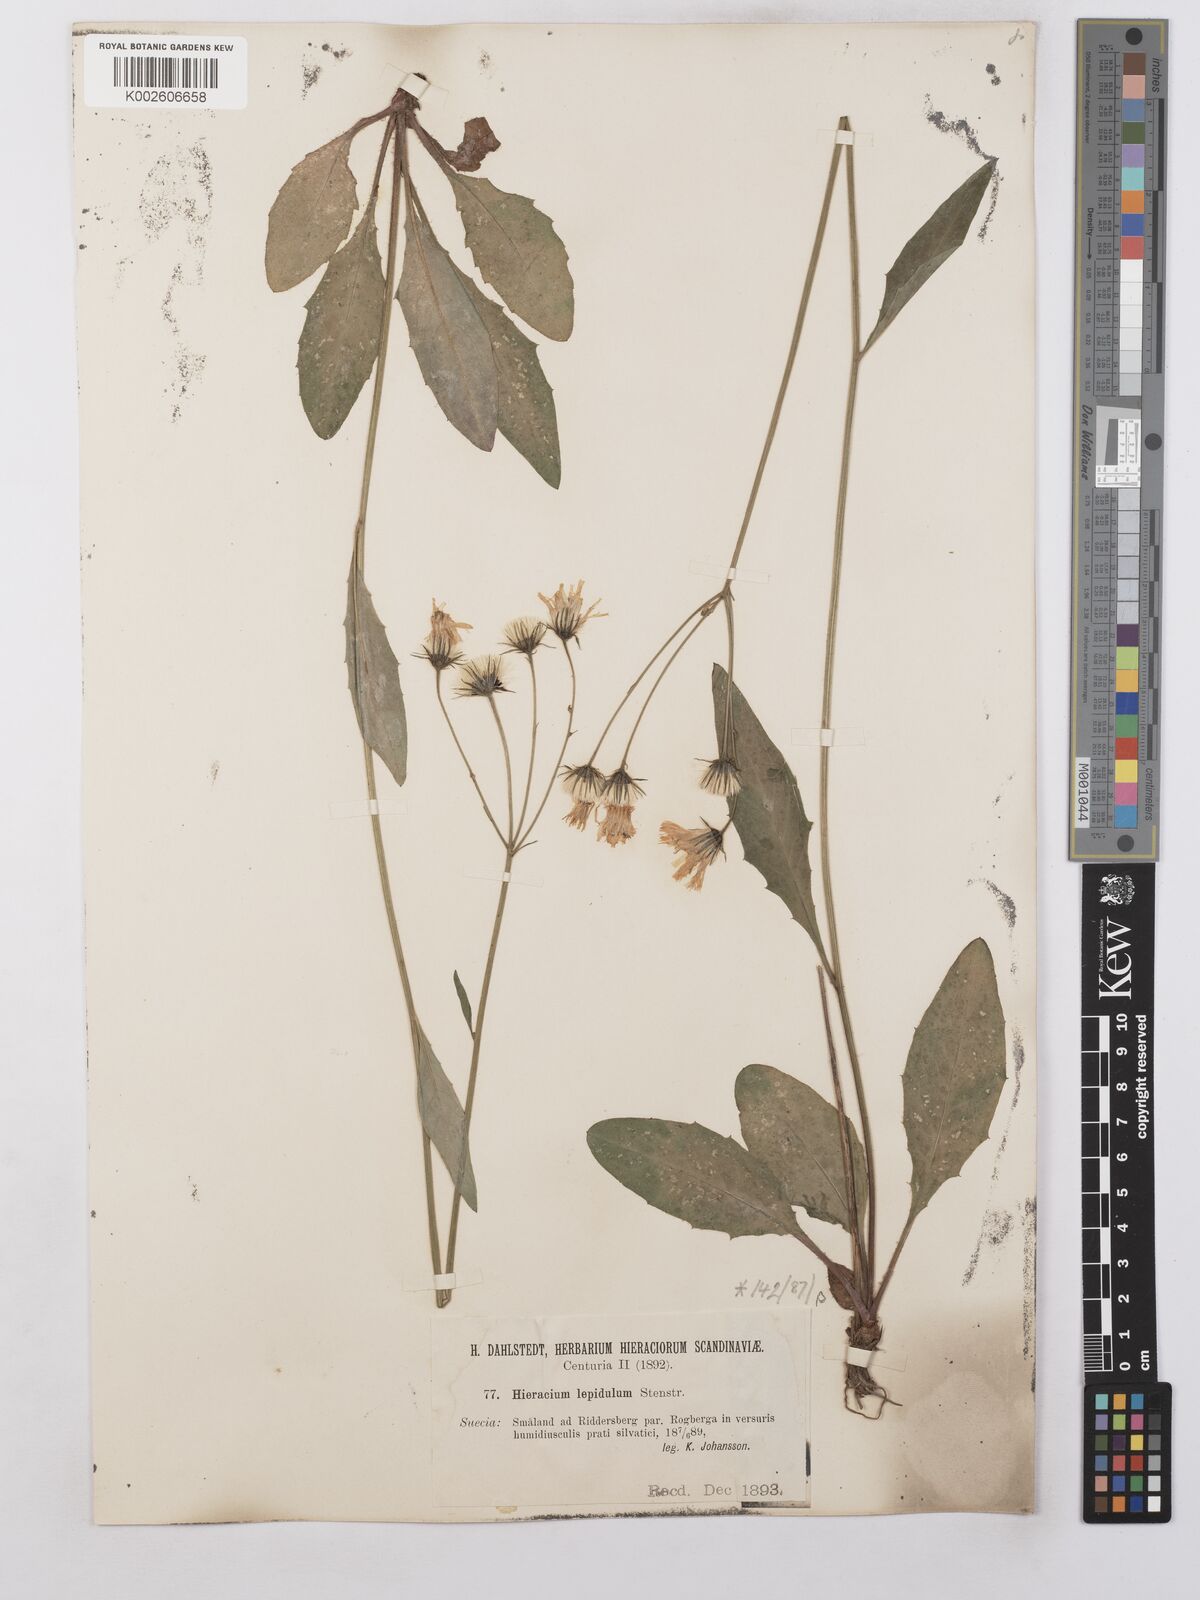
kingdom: Plantae
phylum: Tracheophyta
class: Magnoliopsida
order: Asterales
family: Asteraceae
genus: Hieracium
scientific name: Hieracium lepidulum
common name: Irregular-toothed hawkweed
